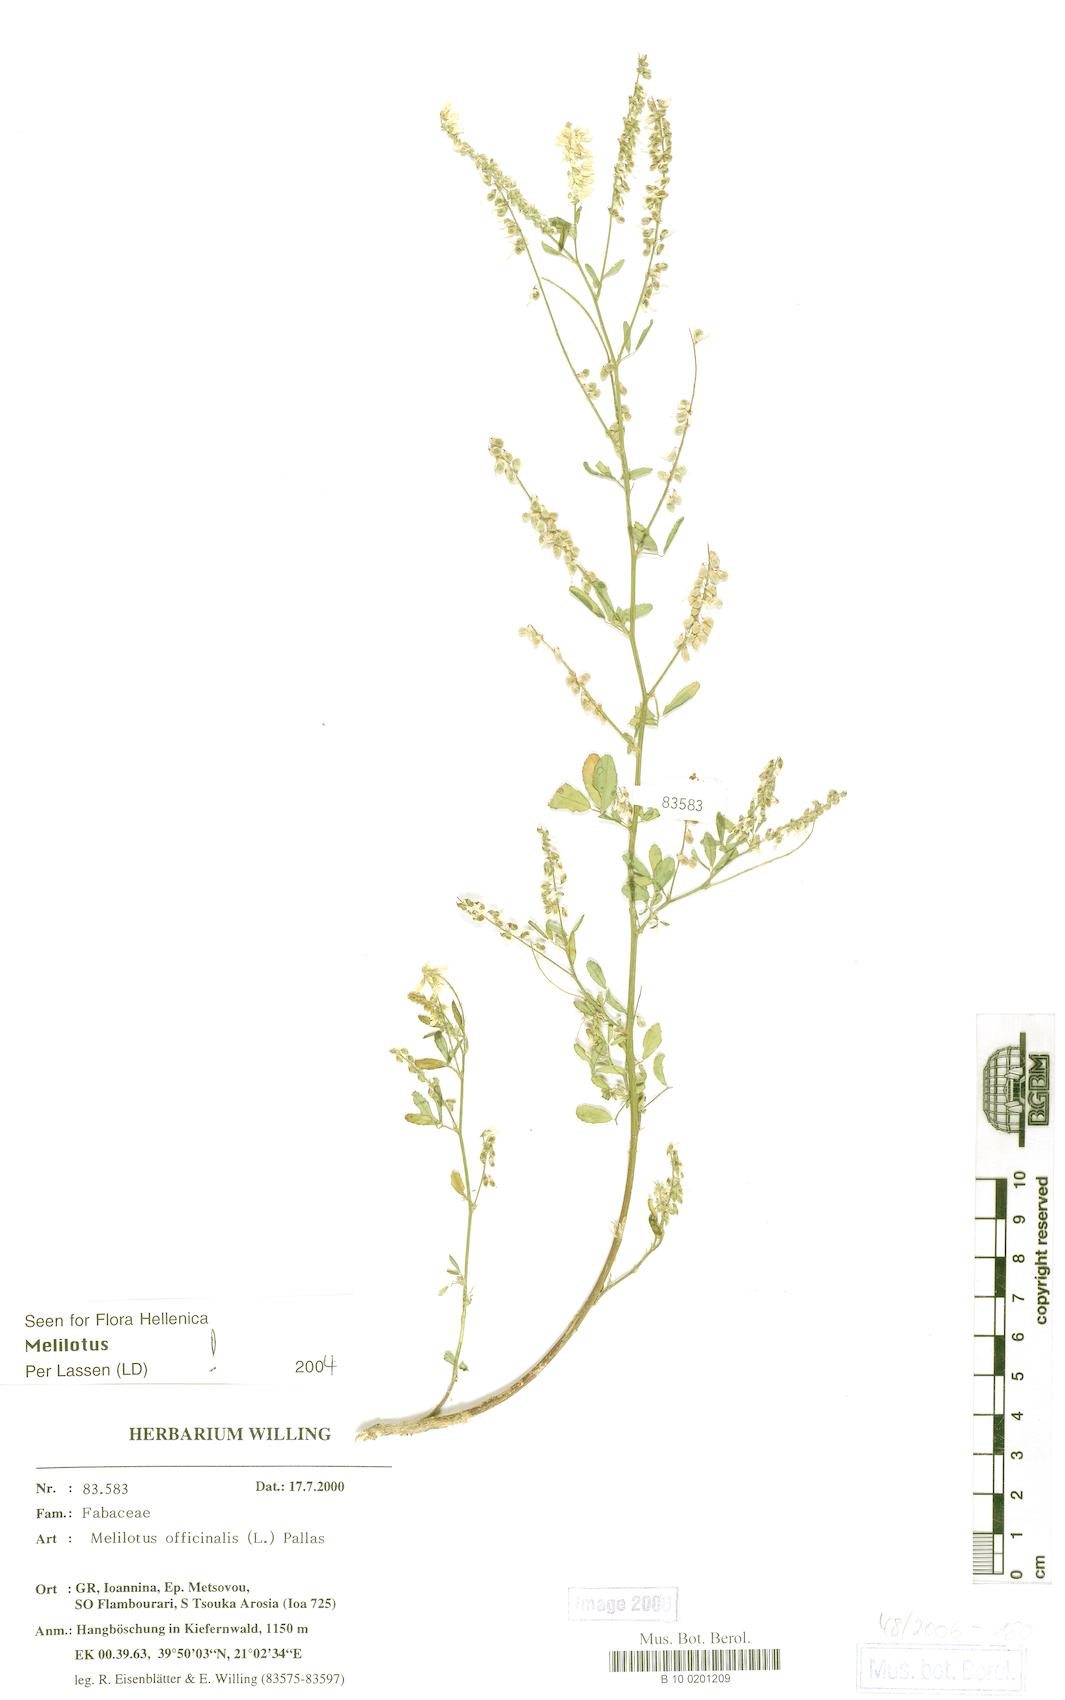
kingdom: Plantae
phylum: Tracheophyta
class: Magnoliopsida
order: Fabales
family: Fabaceae
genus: Melilotus
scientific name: Melilotus officinalis
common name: Sweetclover
